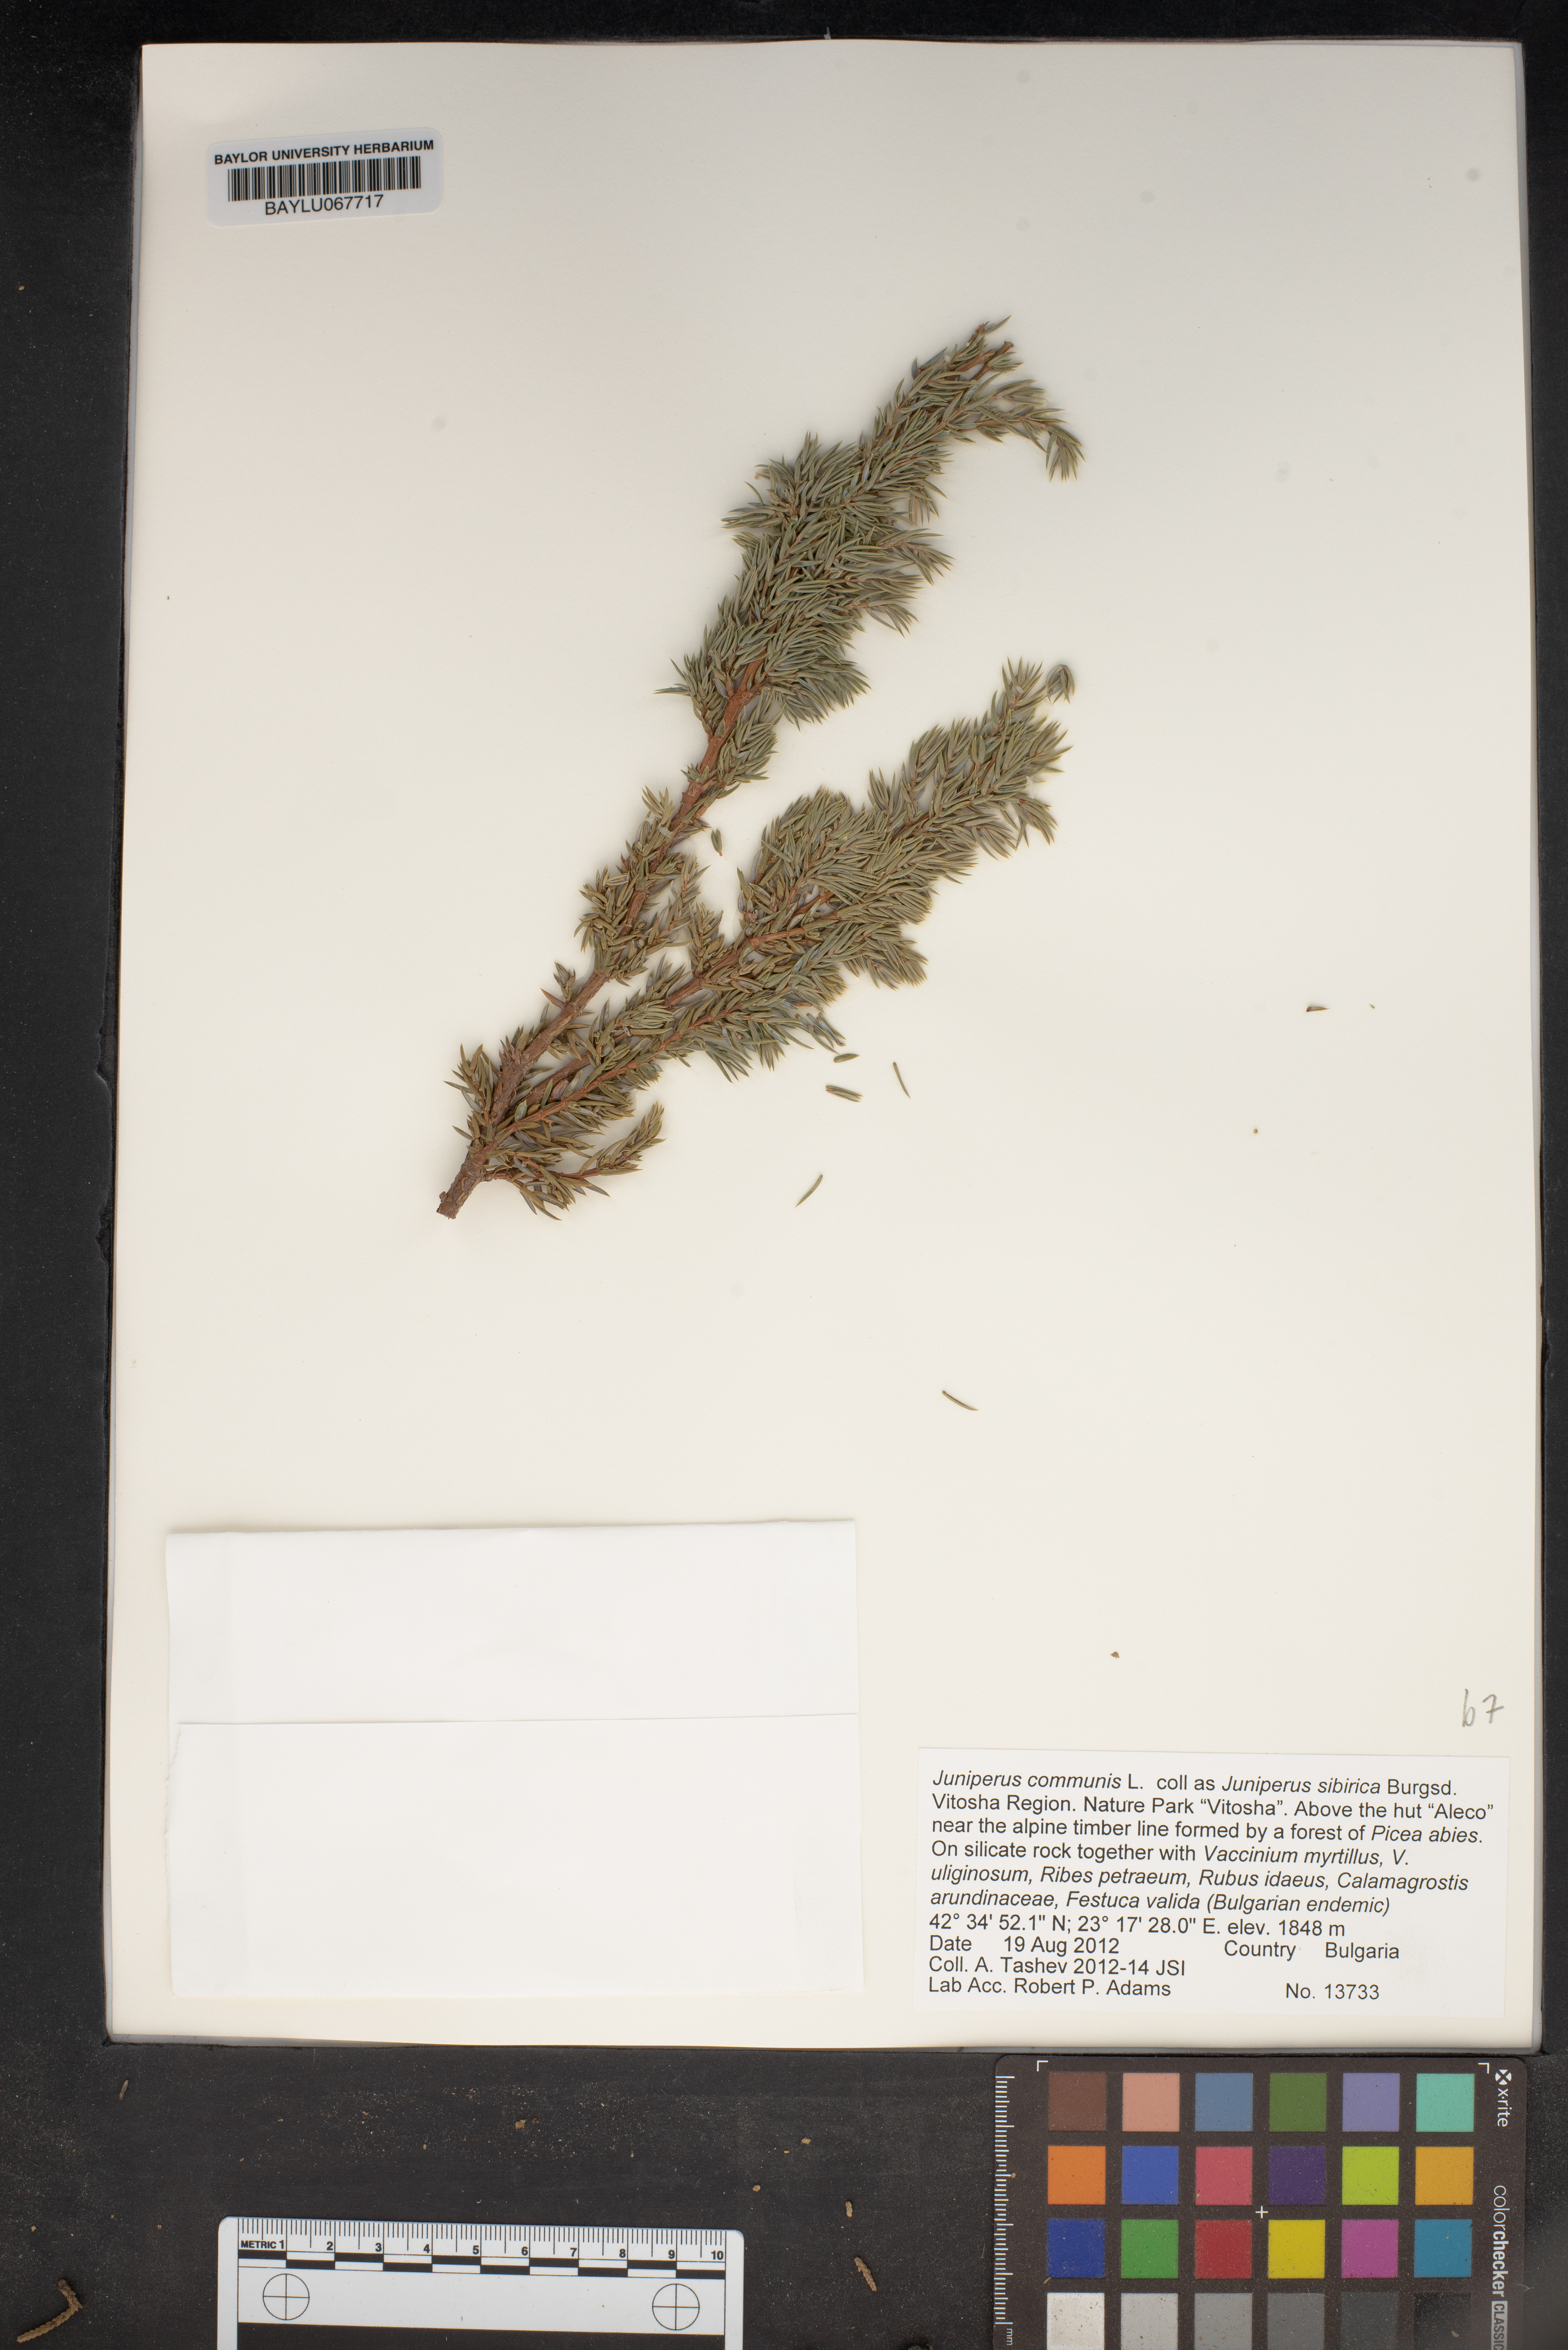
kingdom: Plantae
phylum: Tracheophyta
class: Pinopsida
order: Pinales
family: Cupressaceae
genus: Juniperus
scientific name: Juniperus communis
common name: Common juniper
